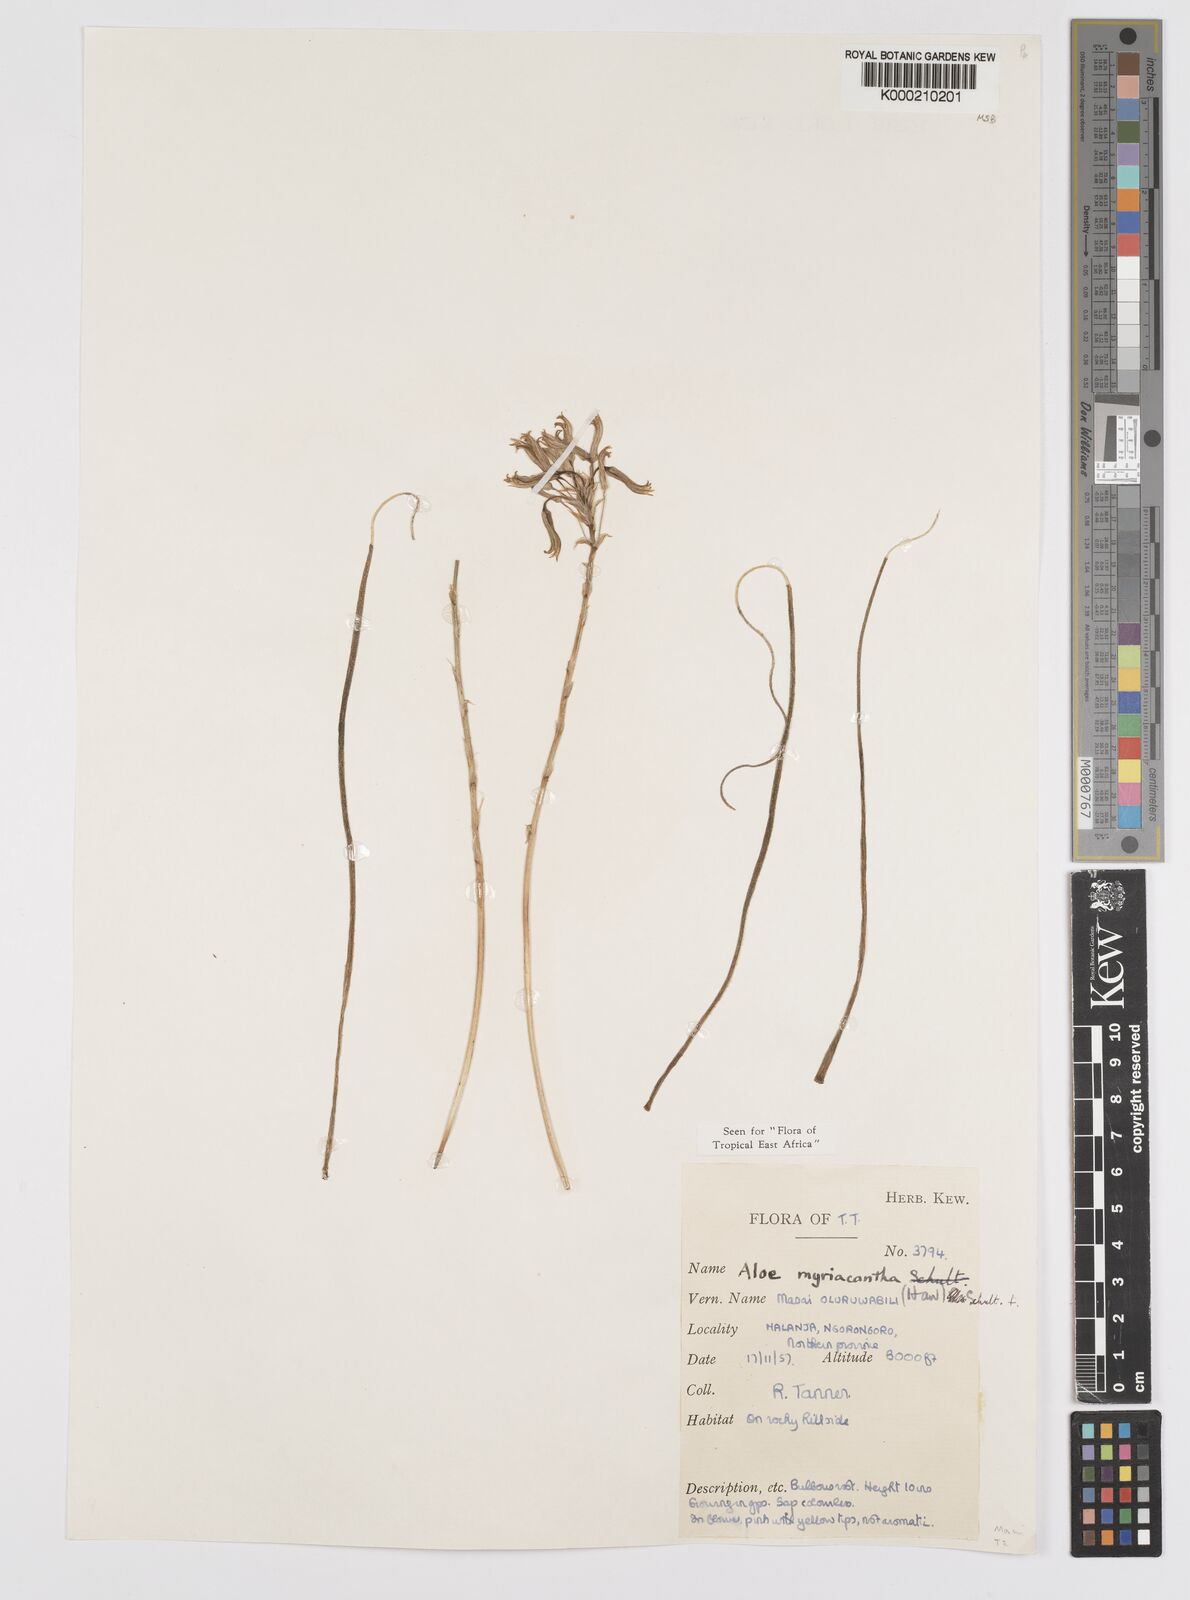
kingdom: Plantae
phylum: Tracheophyta
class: Liliopsida
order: Asparagales
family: Asphodelaceae
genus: Aloe
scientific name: Aloe
